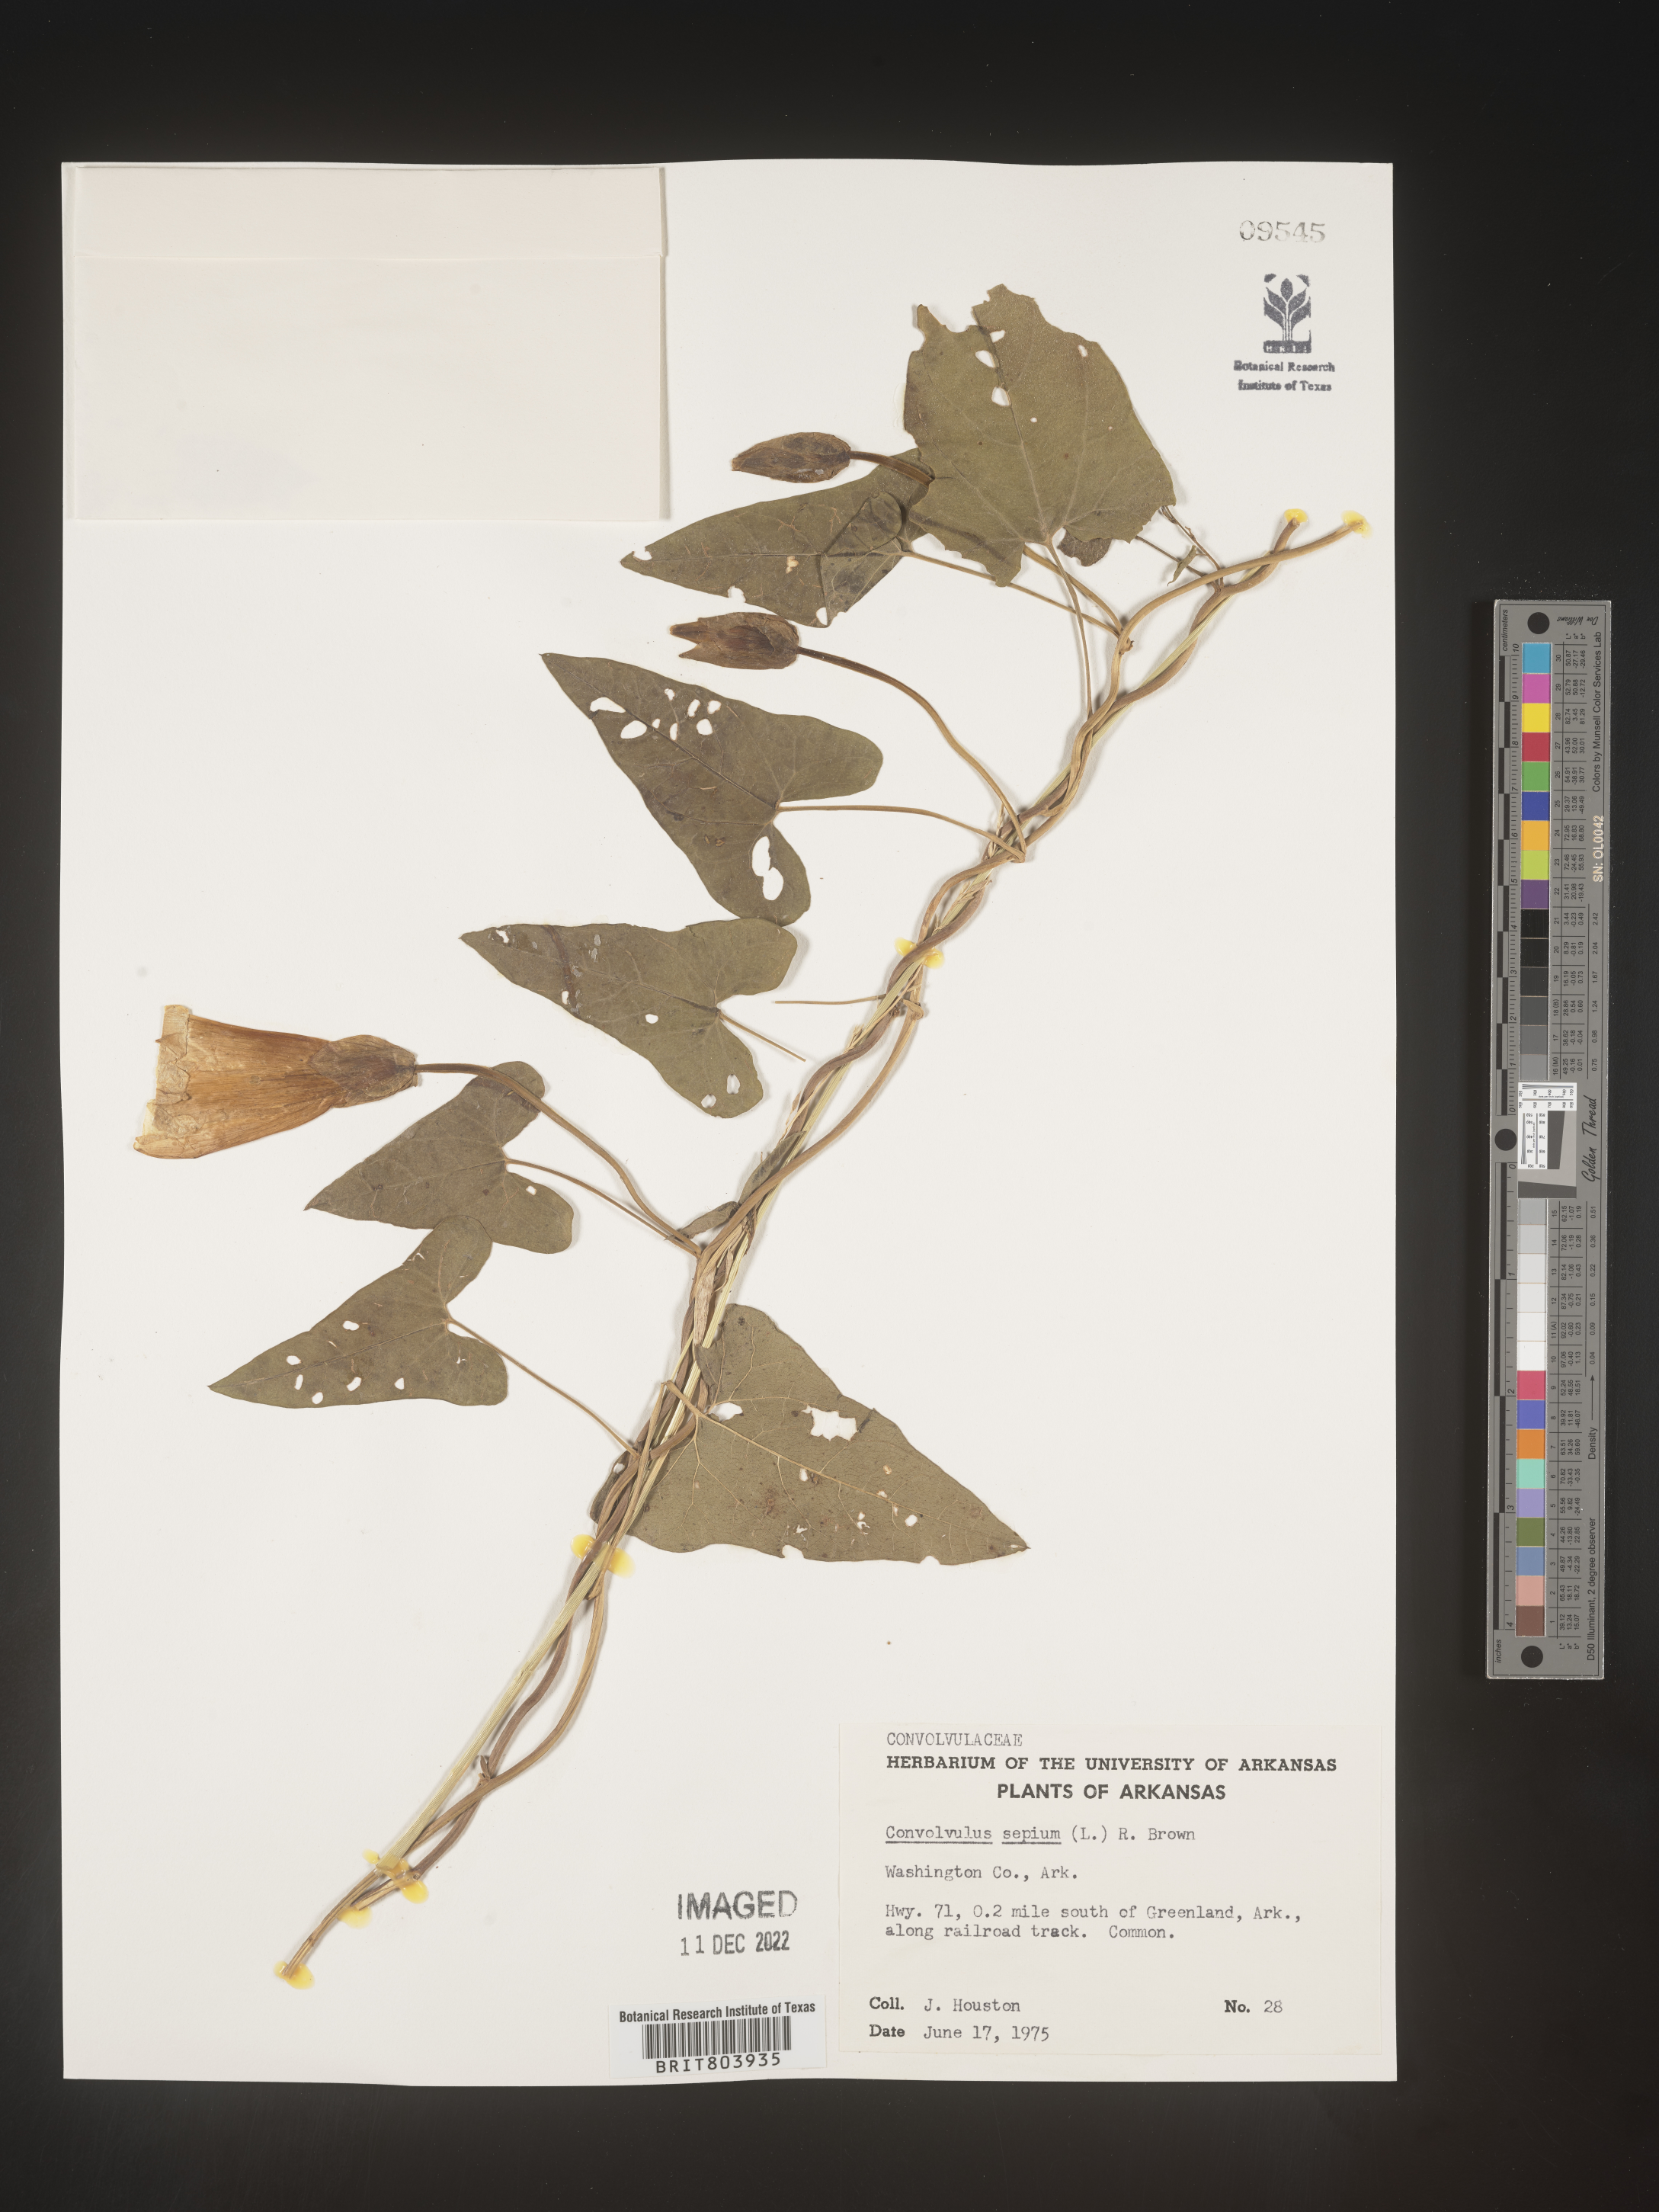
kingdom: Plantae
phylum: Tracheophyta
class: Magnoliopsida
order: Solanales
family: Convolvulaceae
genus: Calystegia
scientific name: Calystegia sepium
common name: Hedge bindweed
